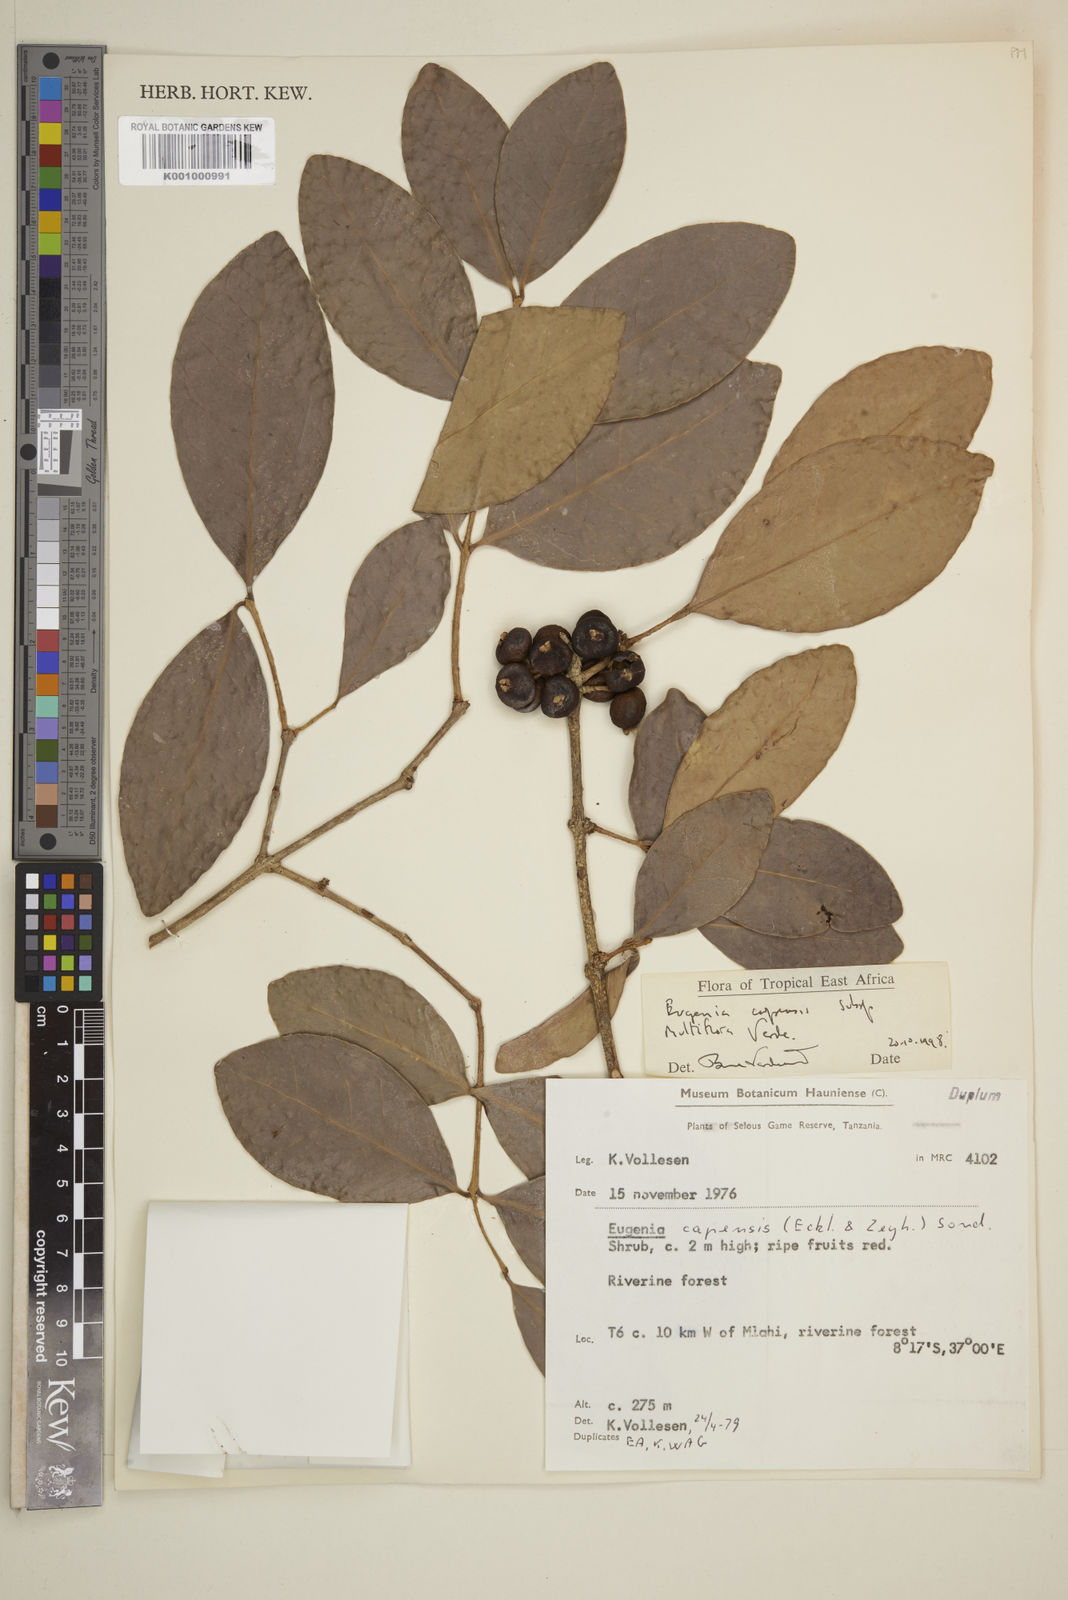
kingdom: Plantae
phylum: Tracheophyta
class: Magnoliopsida
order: Myrtales
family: Myrtaceae
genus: Eugenia
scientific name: Eugenia capensis
